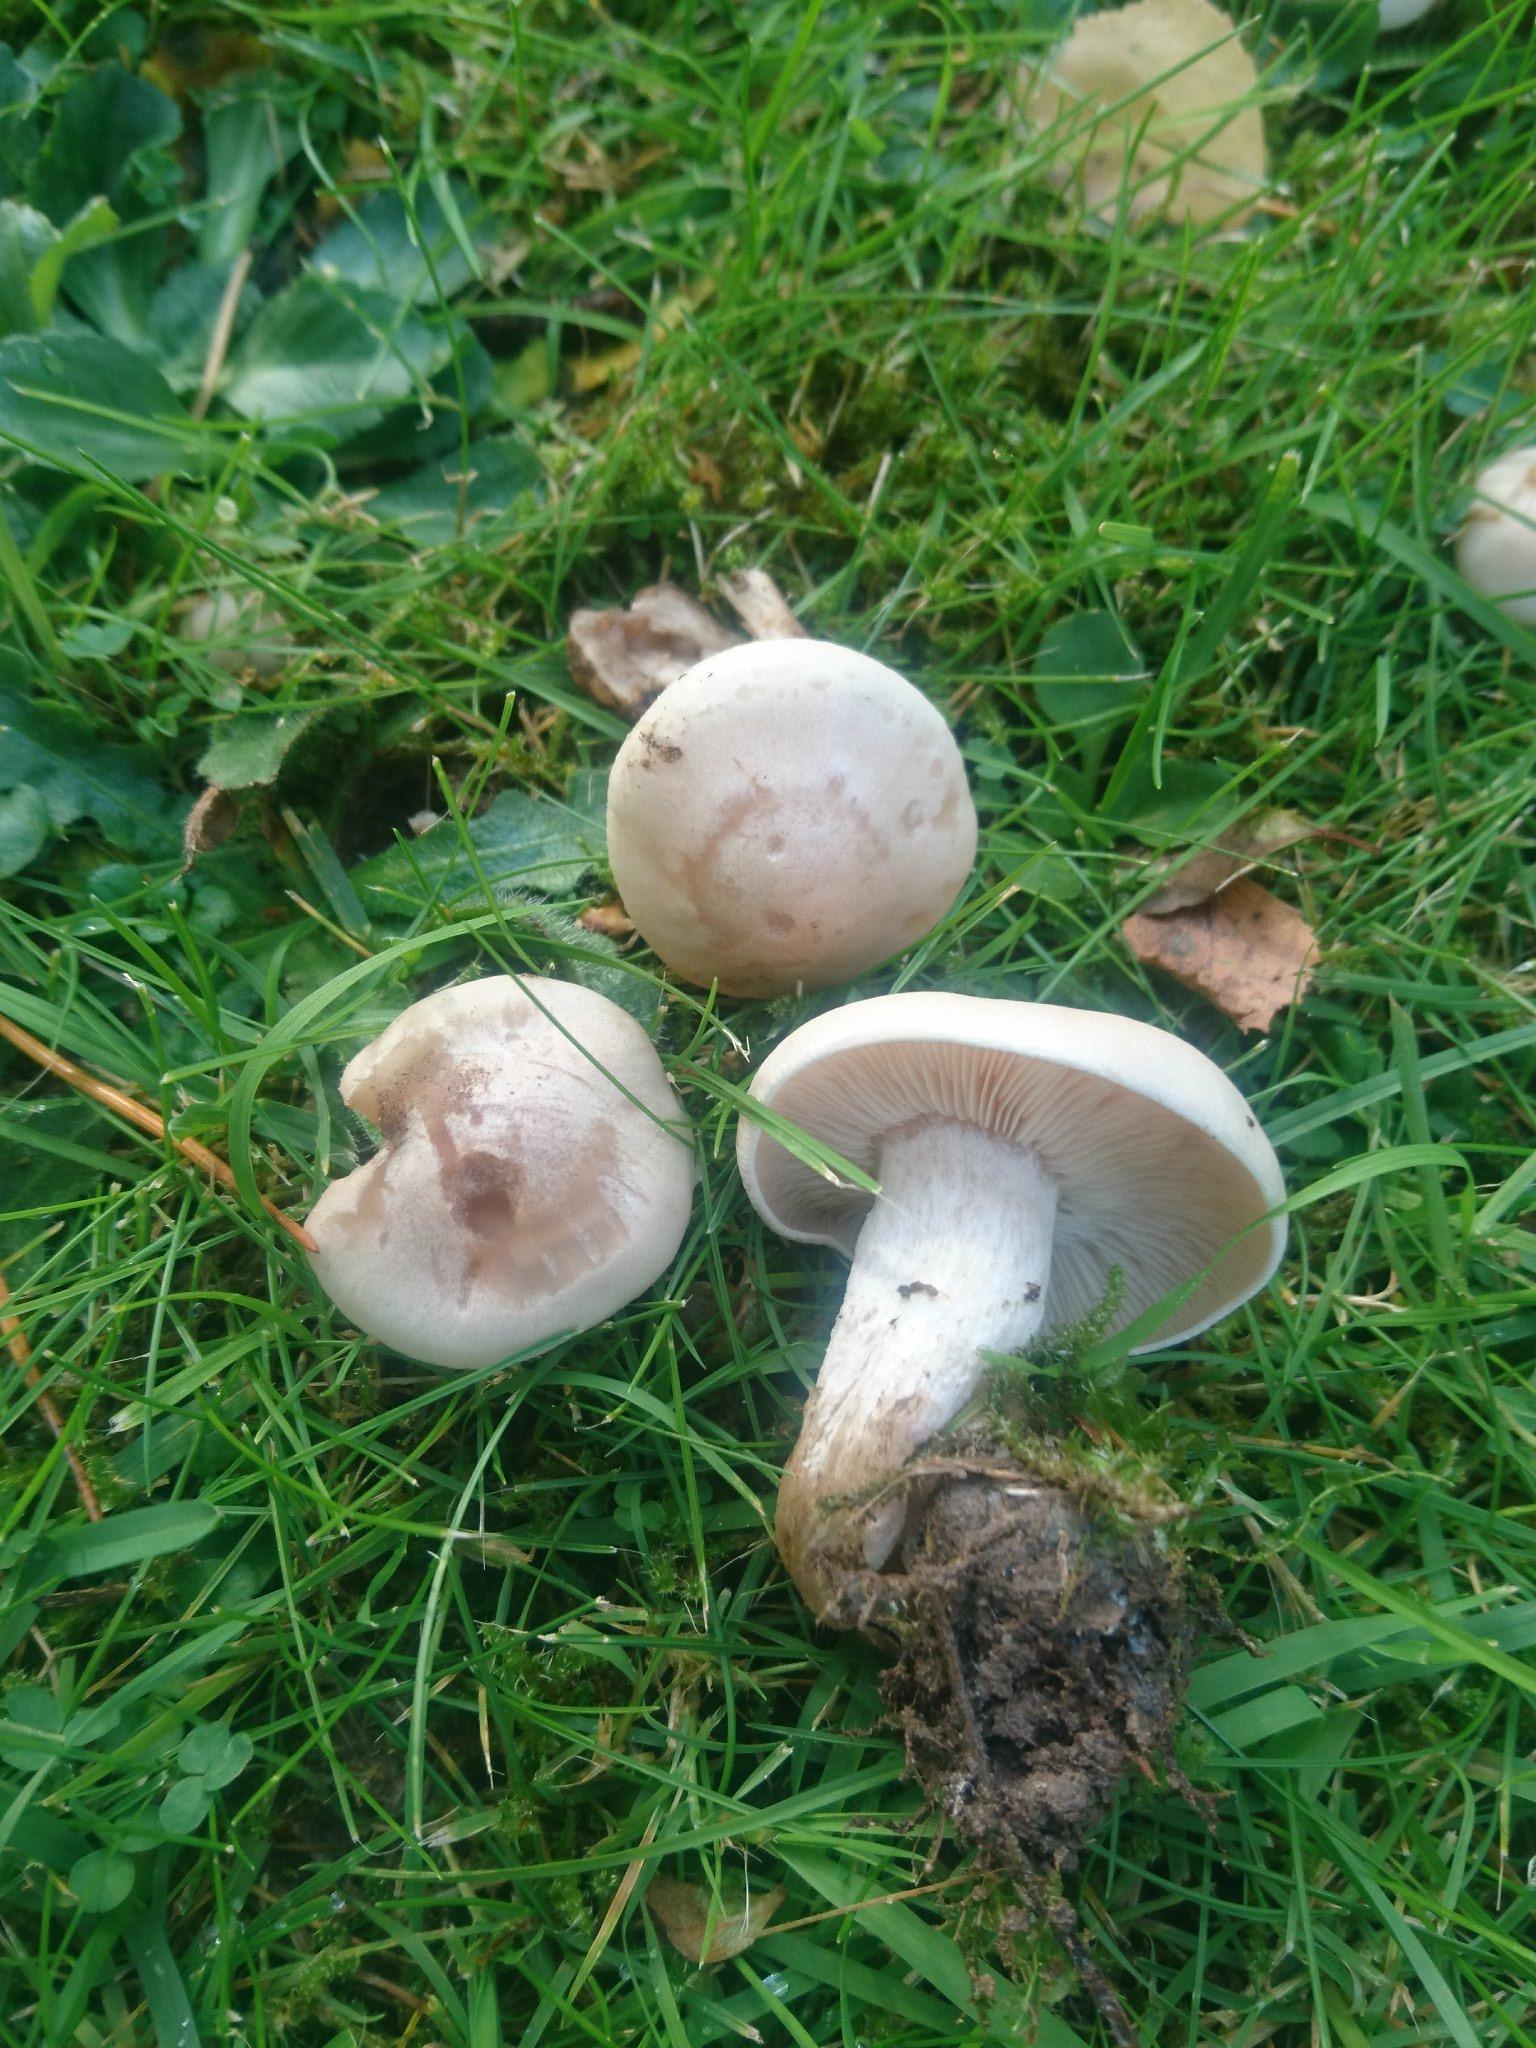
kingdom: Fungi
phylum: Basidiomycota
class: Agaricomycetes
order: Agaricales
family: Tricholomataceae
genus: Lepista
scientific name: Lepista panaeolus
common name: marmoreret hekseringshat
